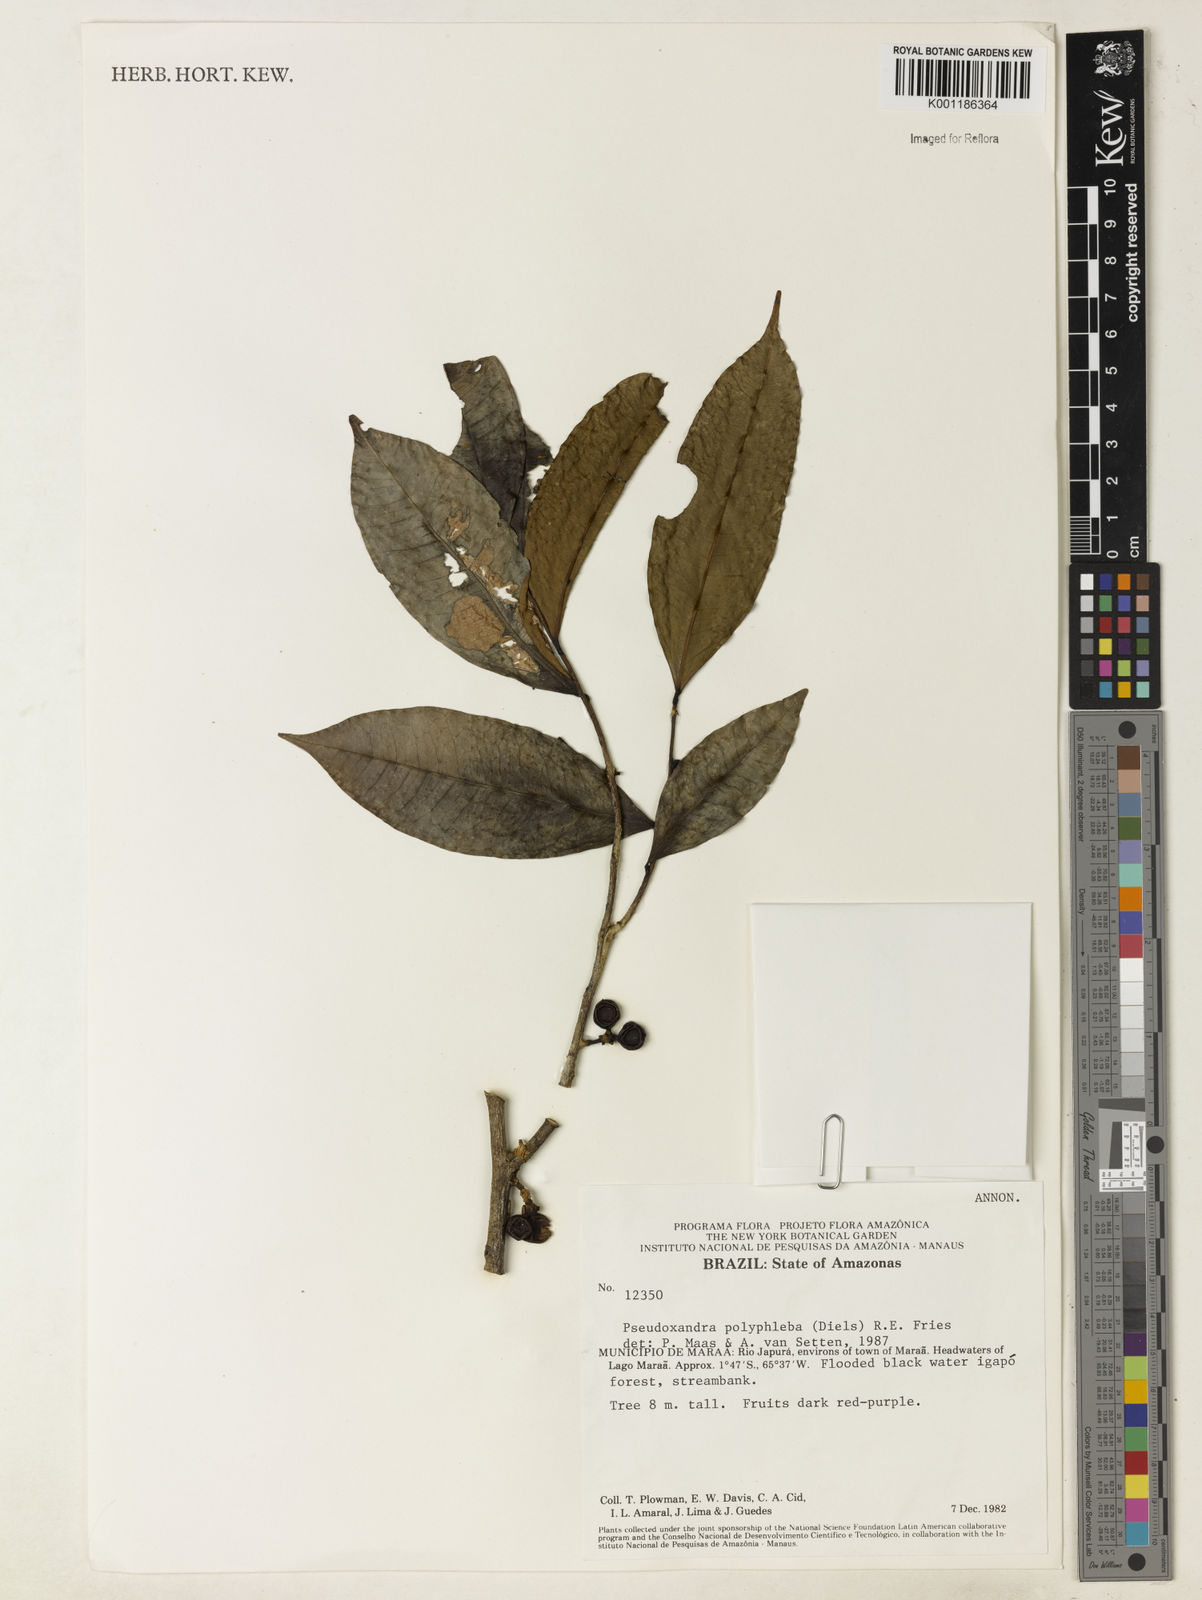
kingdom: Plantae
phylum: Tracheophyta
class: Magnoliopsida
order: Magnoliales
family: Annonaceae
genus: Pseudoxandra
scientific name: Pseudoxandra polyphleba
